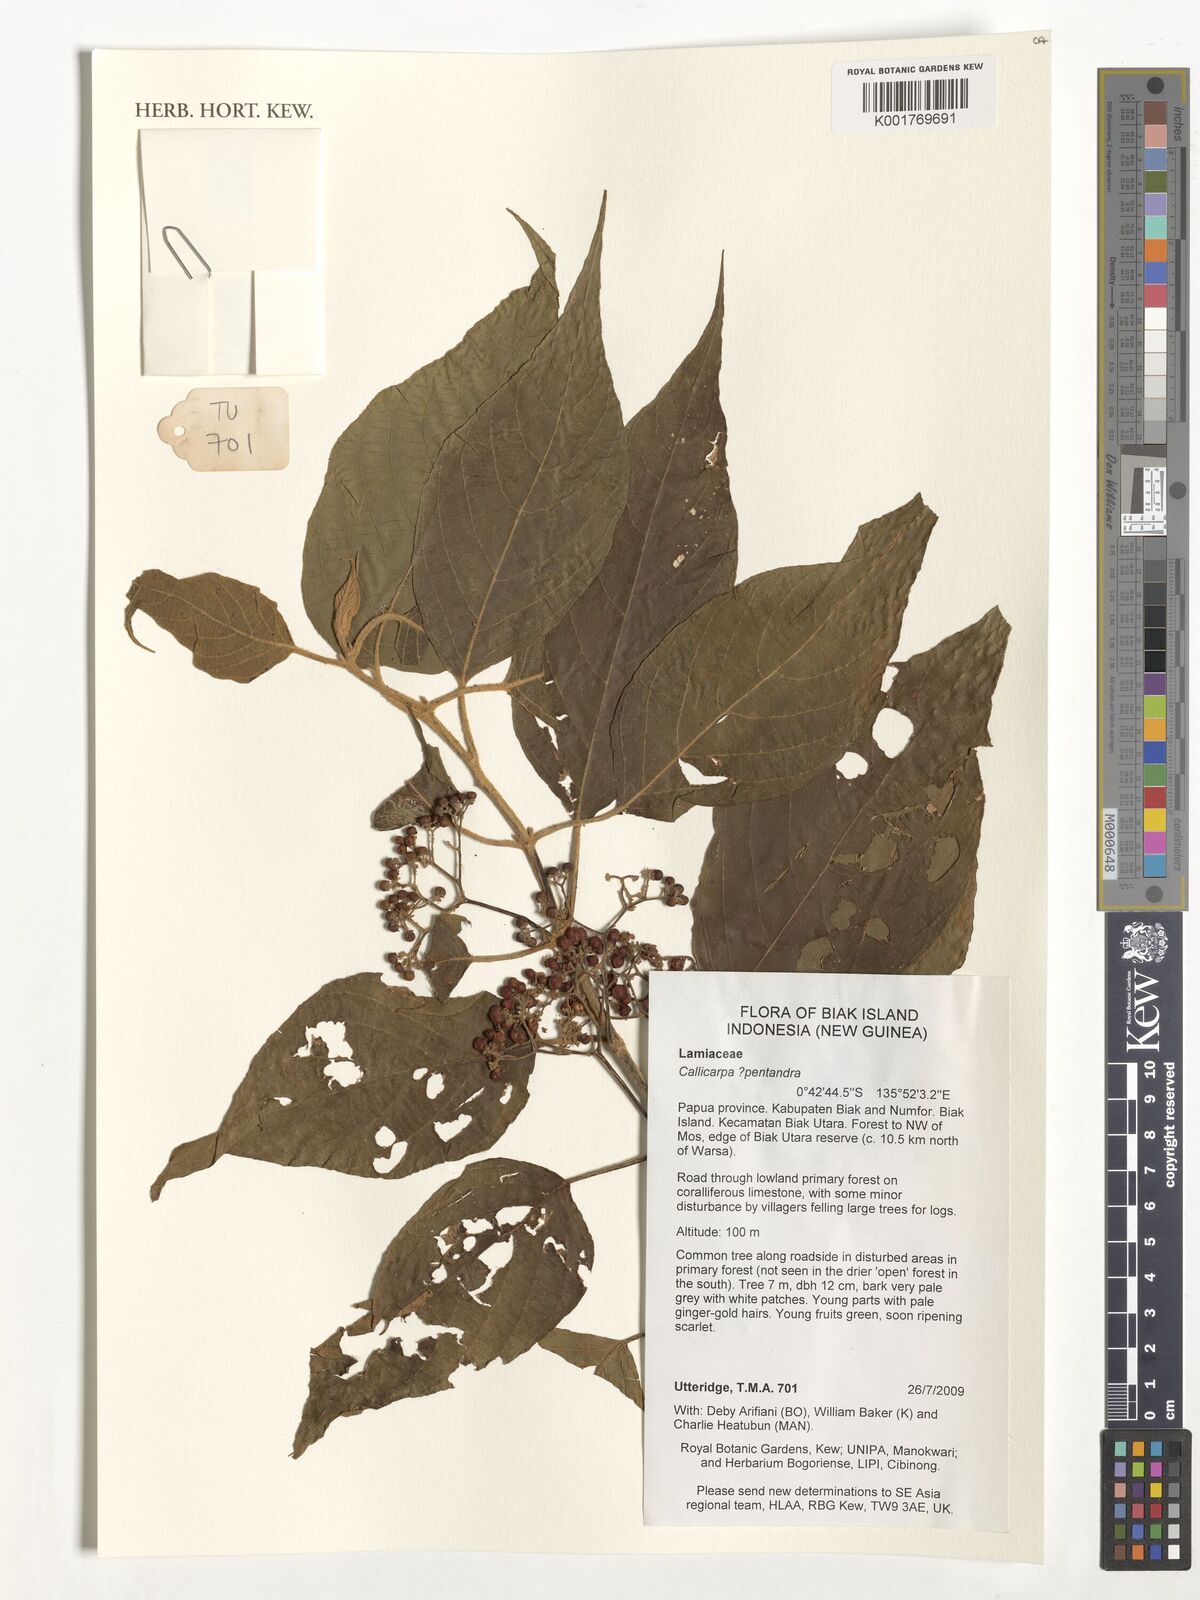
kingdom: Plantae
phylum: Tracheophyta
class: Magnoliopsida
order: Lamiales
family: Lamiaceae
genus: Callicarpa
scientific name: Callicarpa pentandra
